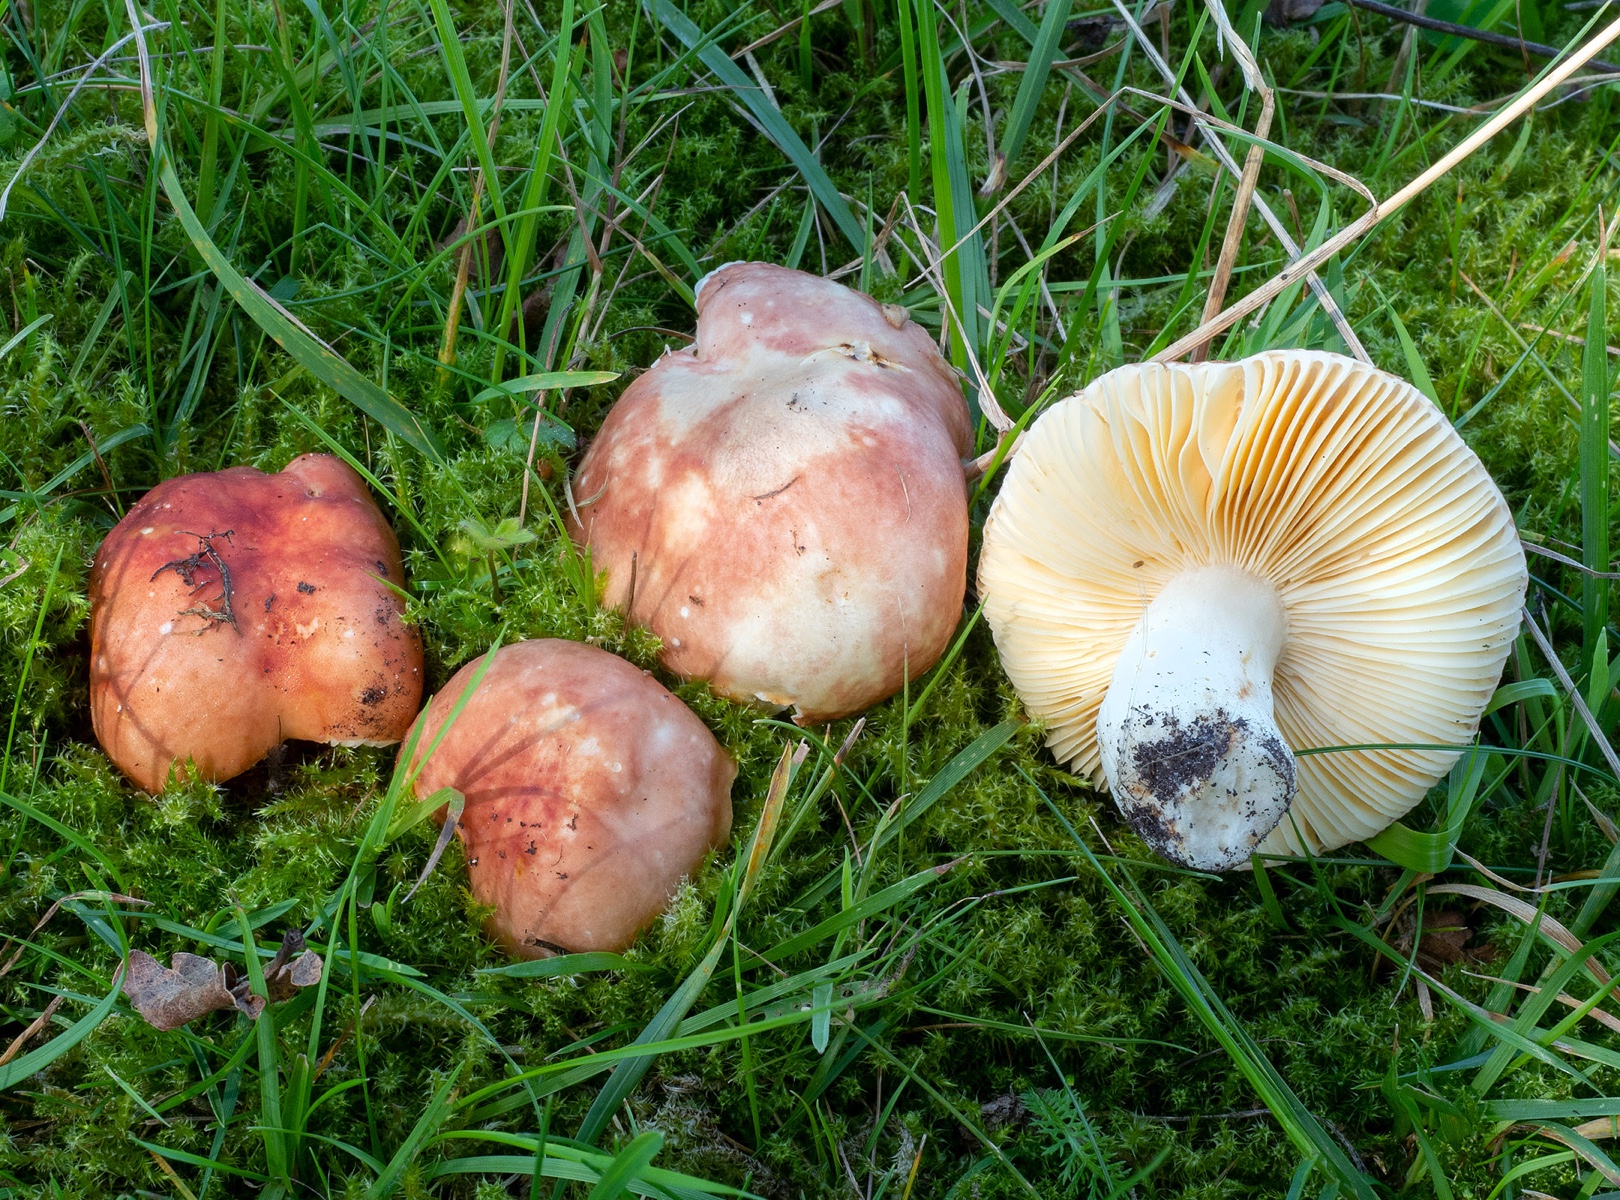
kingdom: Fungi
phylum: Basidiomycota
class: Agaricomycetes
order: Russulales
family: Russulaceae
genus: Russula
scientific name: Russula fontqueri
